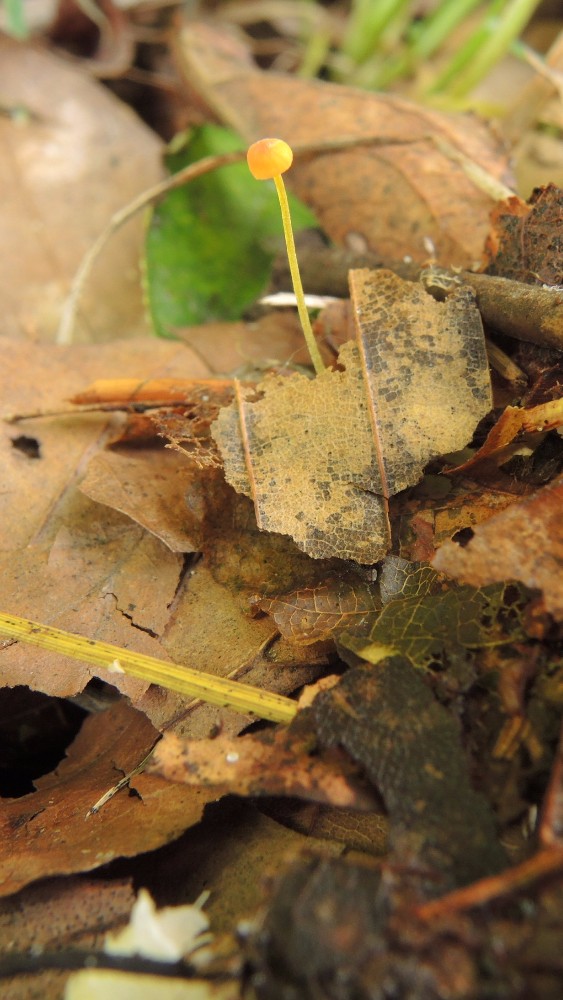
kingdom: Fungi
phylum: Basidiomycota
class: Agaricomycetes
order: Agaricales
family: Mycenaceae
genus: Mycena
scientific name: Mycena acicula
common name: orange huesvamp
